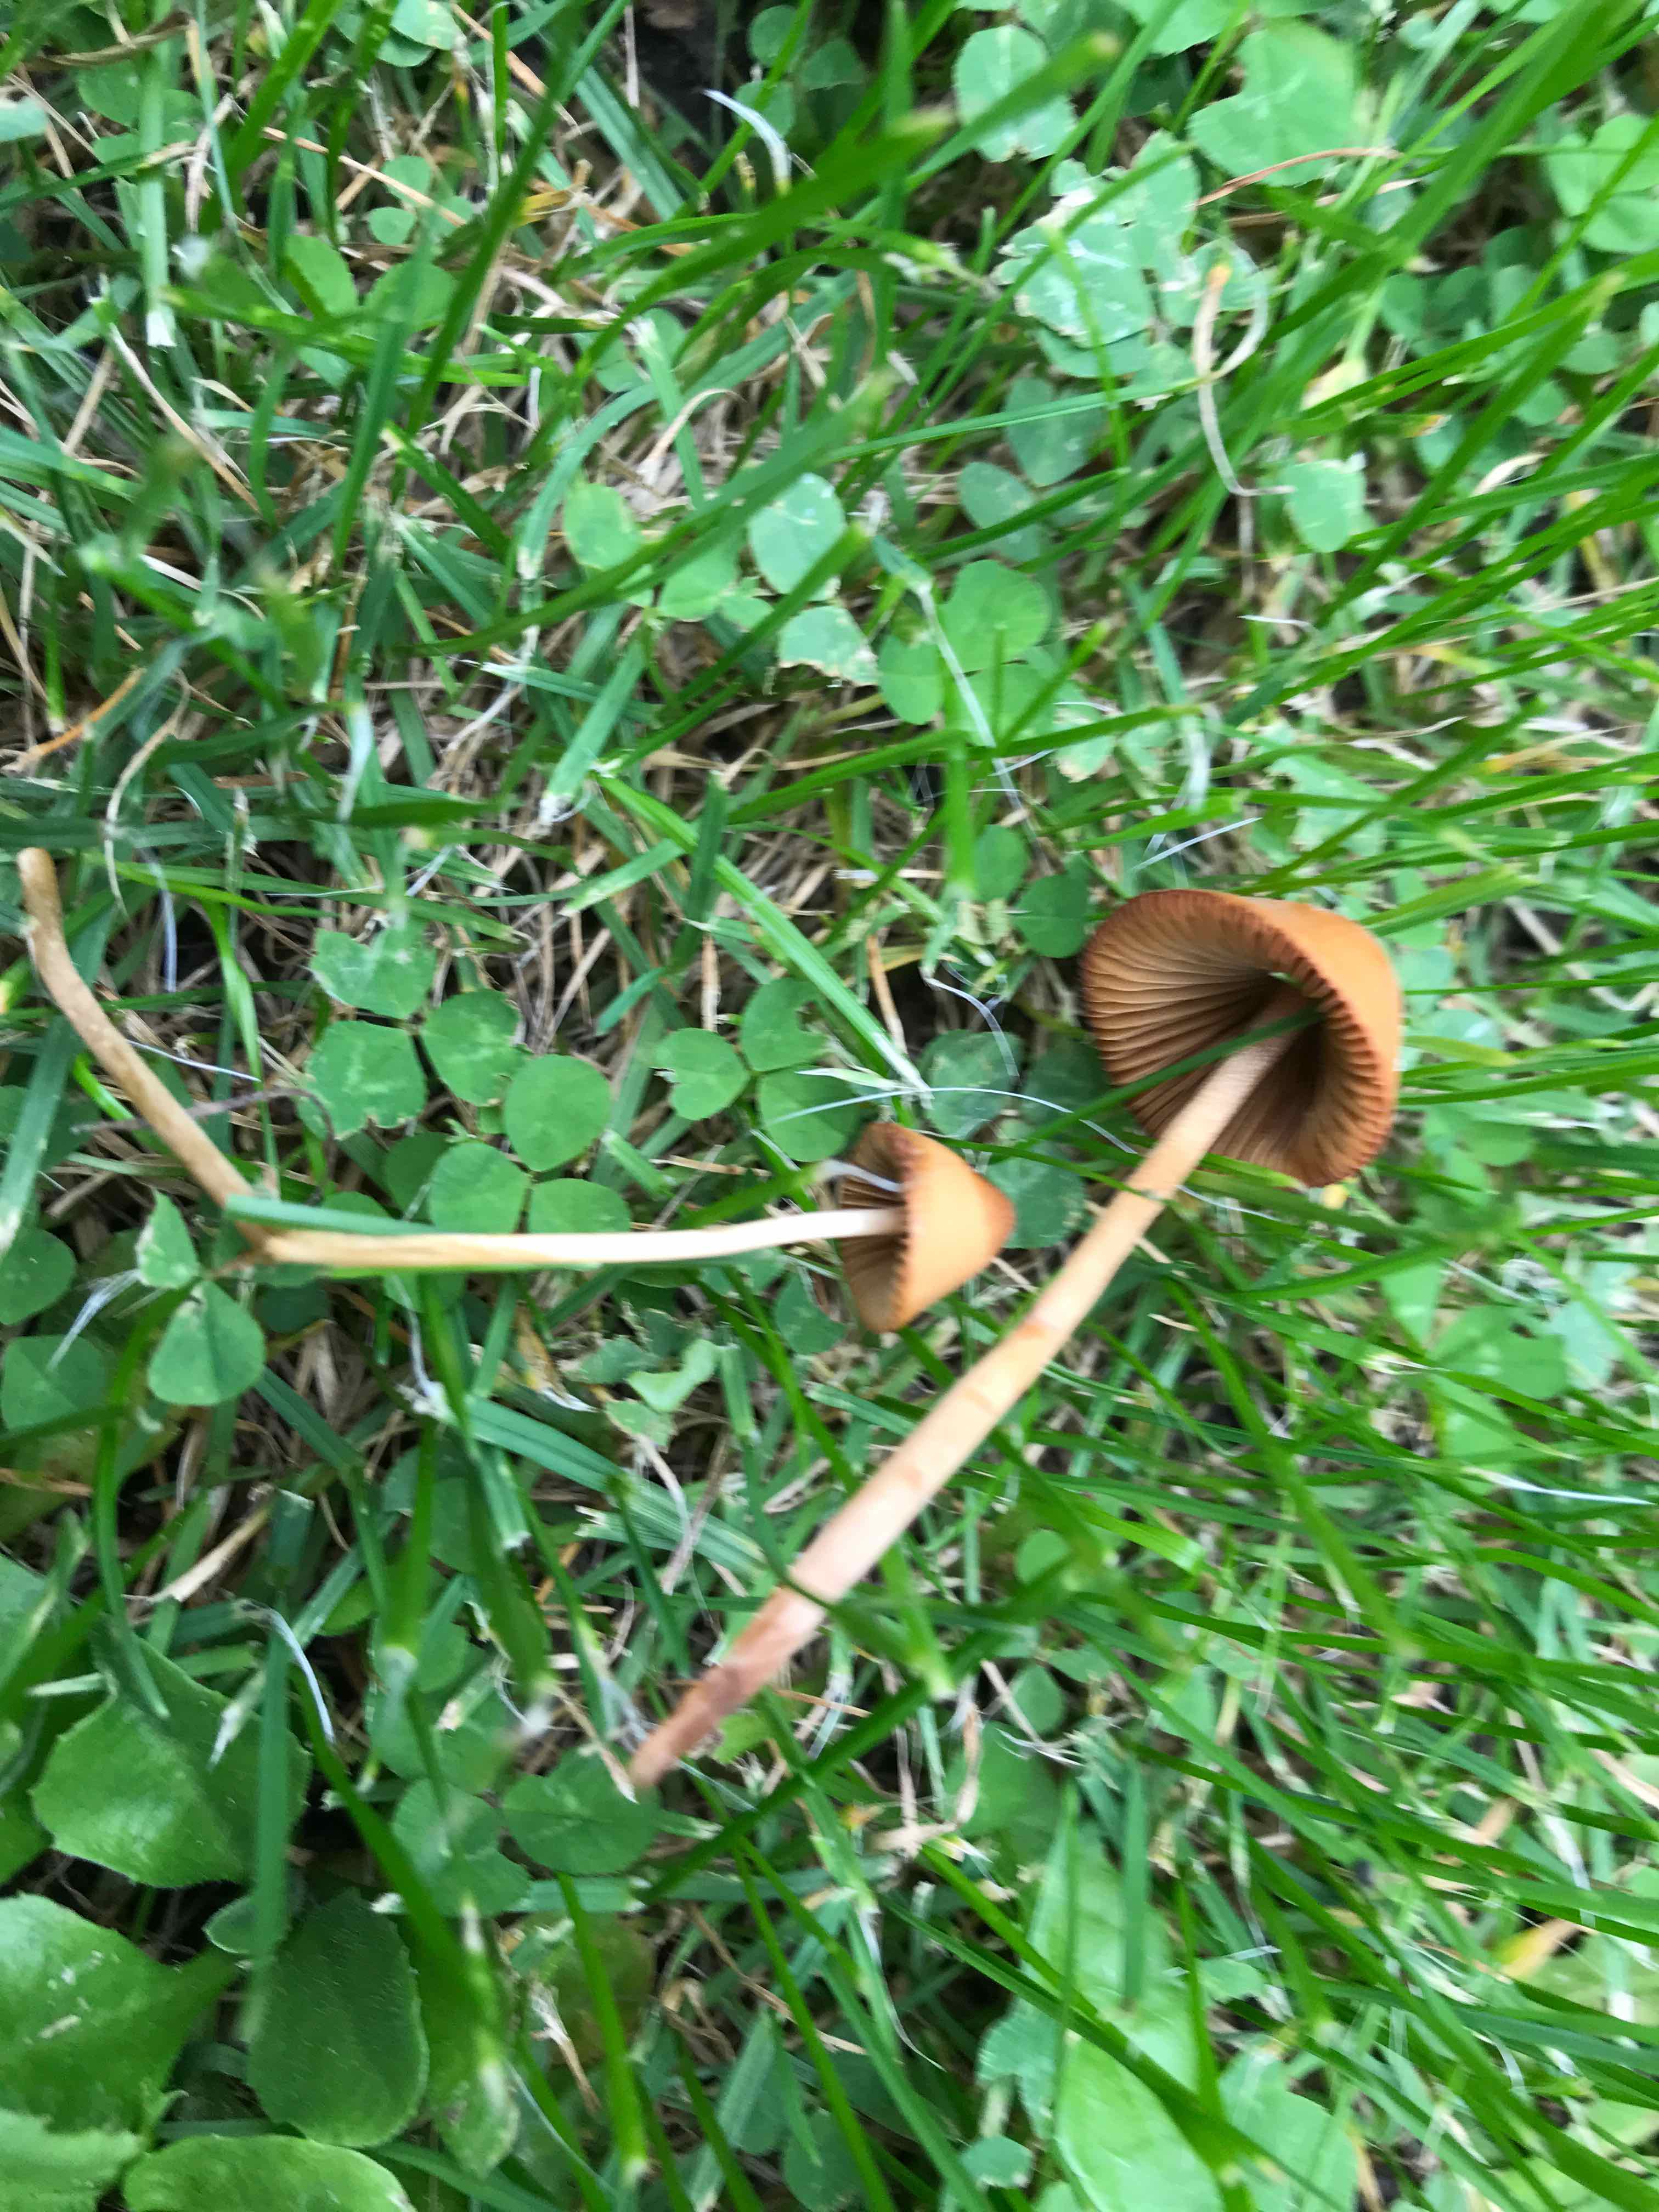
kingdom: Fungi
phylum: Basidiomycota
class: Agaricomycetes
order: Agaricales
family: Bolbitiaceae
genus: Conocybe
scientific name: Conocybe
